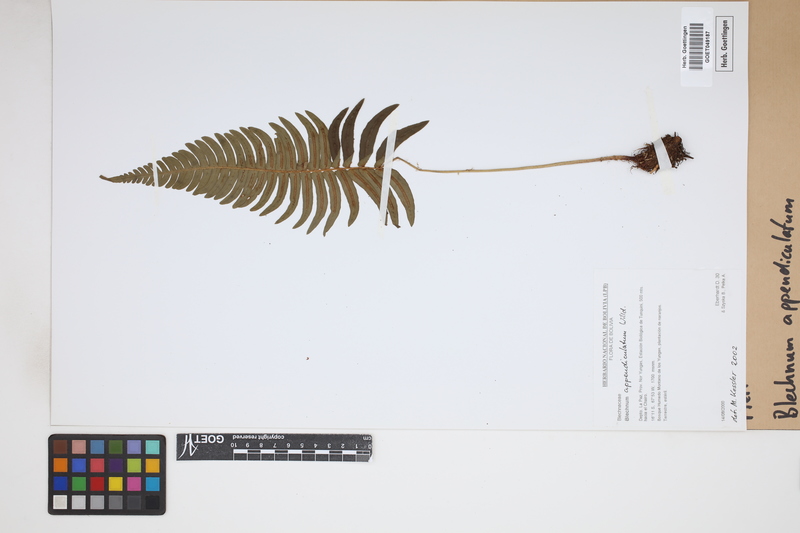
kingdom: Plantae
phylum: Tracheophyta
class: Polypodiopsida
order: Polypodiales
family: Blechnaceae
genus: Blechnum
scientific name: Blechnum appendiculatum
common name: Palm fern
